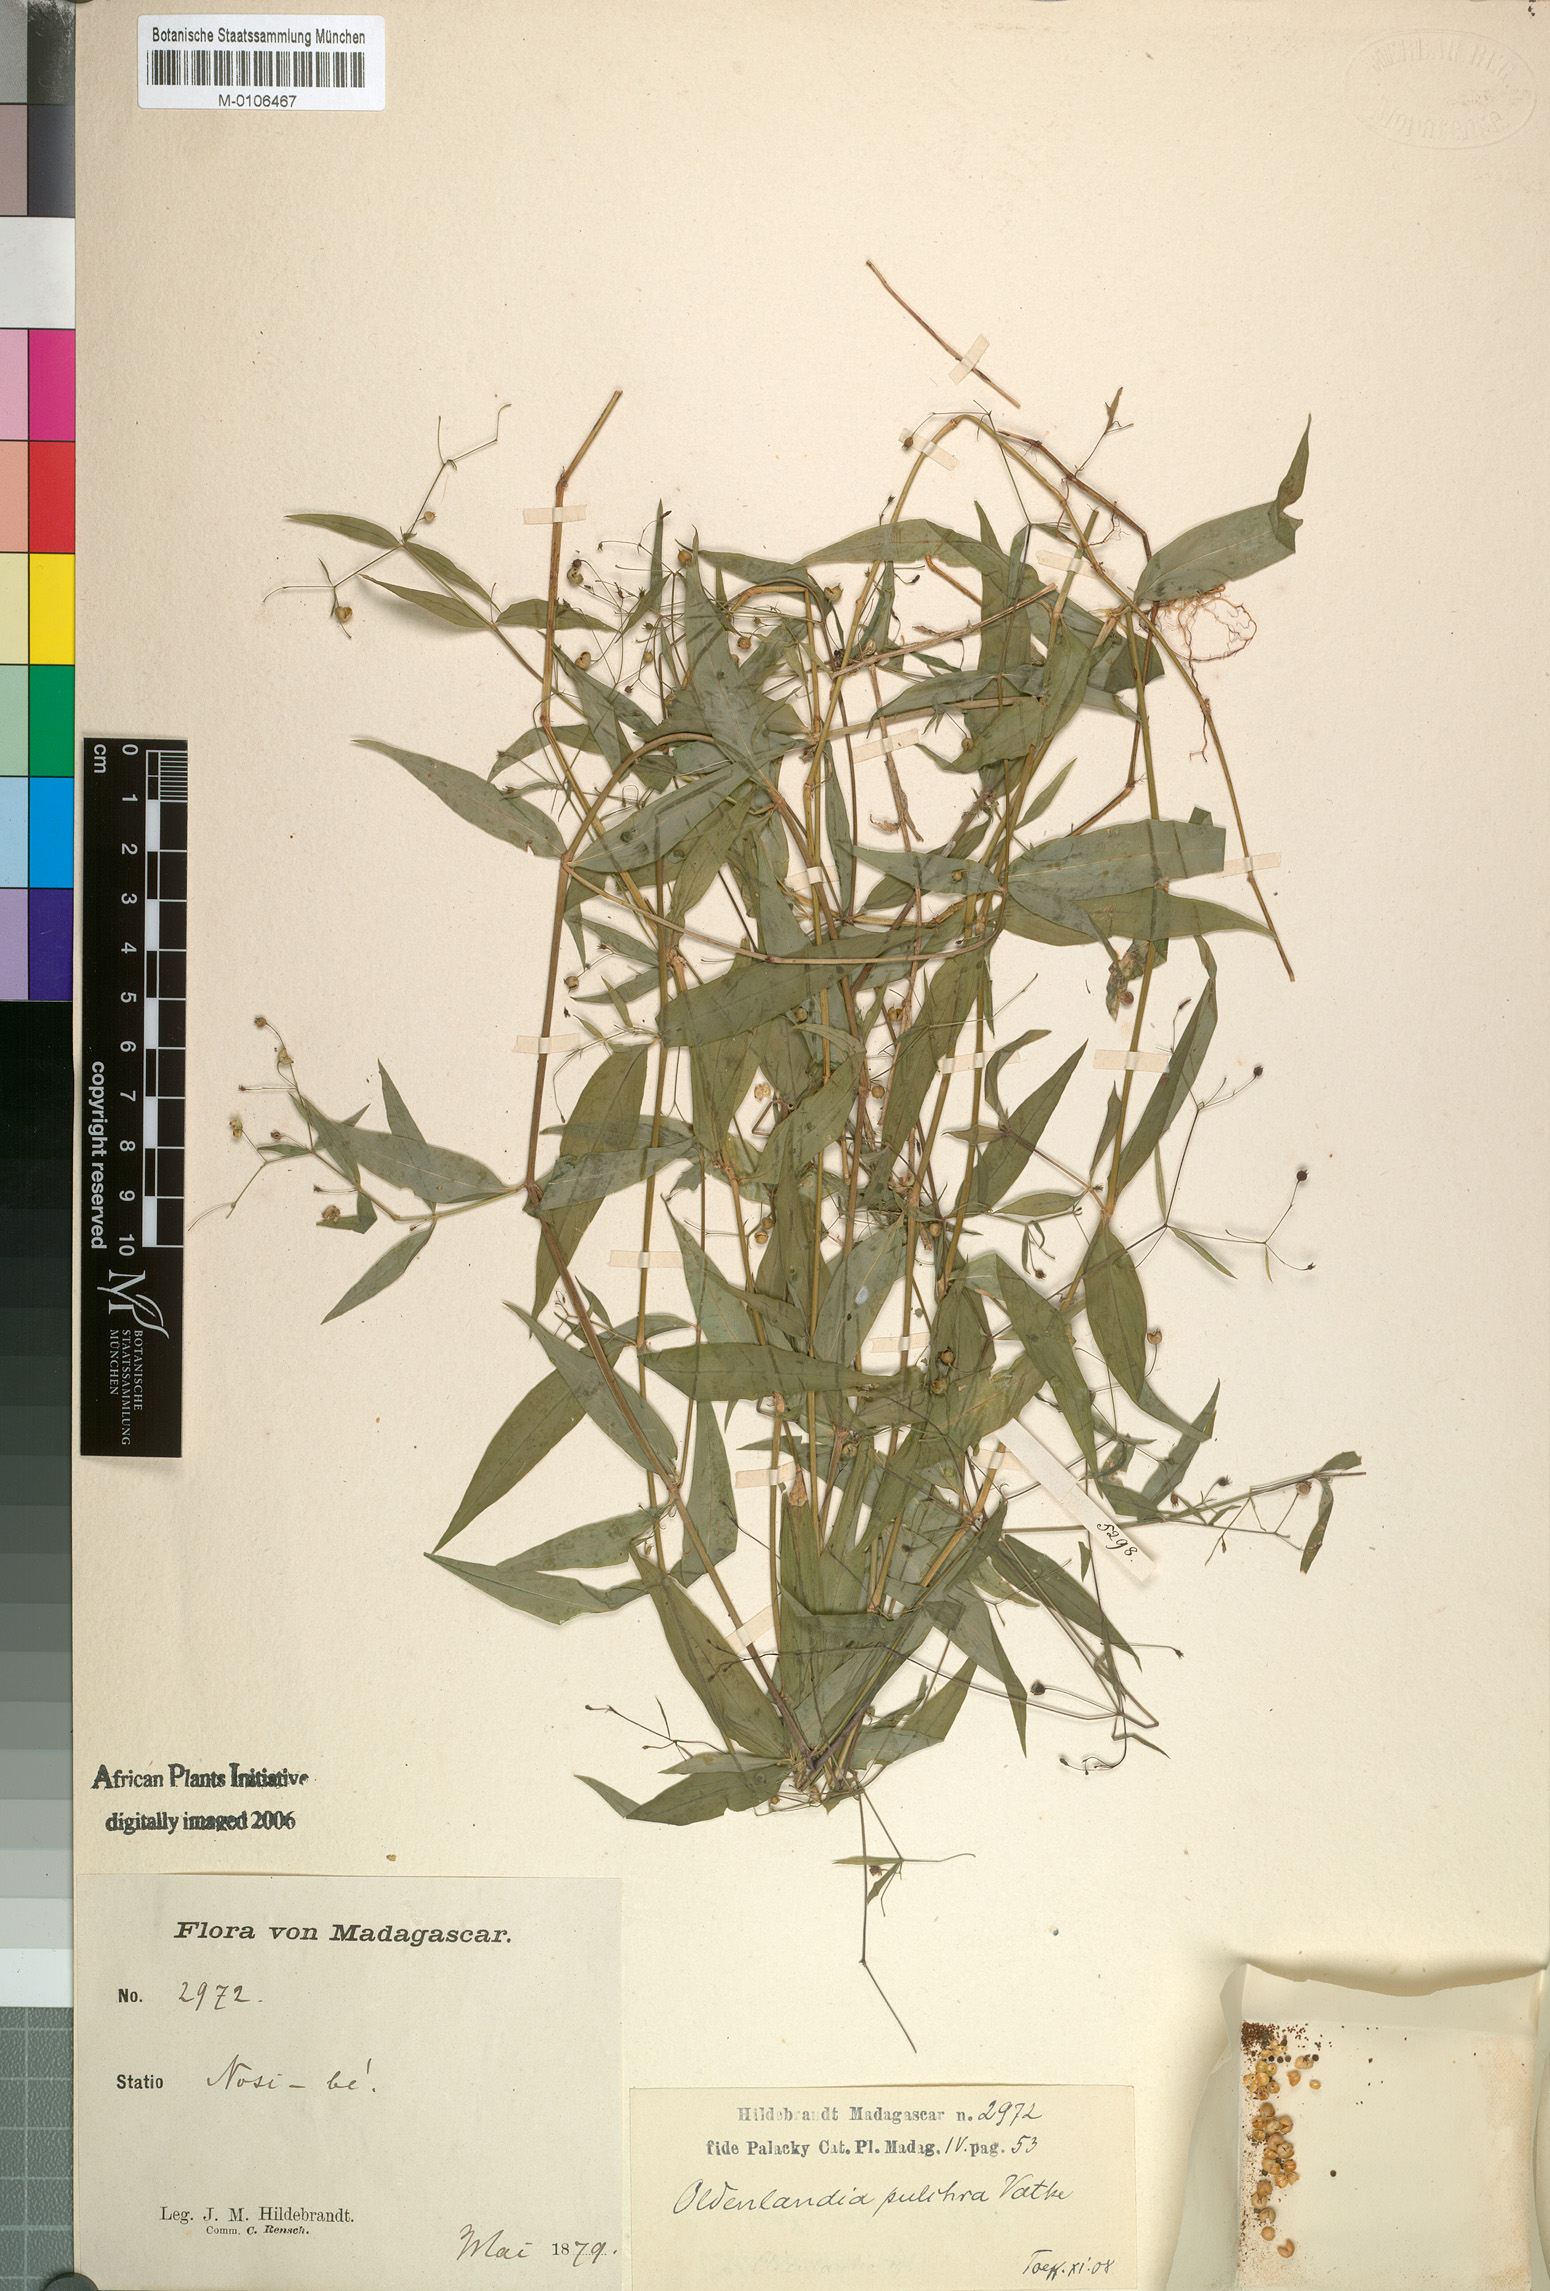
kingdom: Plantae
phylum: Tracheophyta
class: Magnoliopsida
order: Gentianales
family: Rubiaceae
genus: Oldenlandia
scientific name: Oldenlandia
